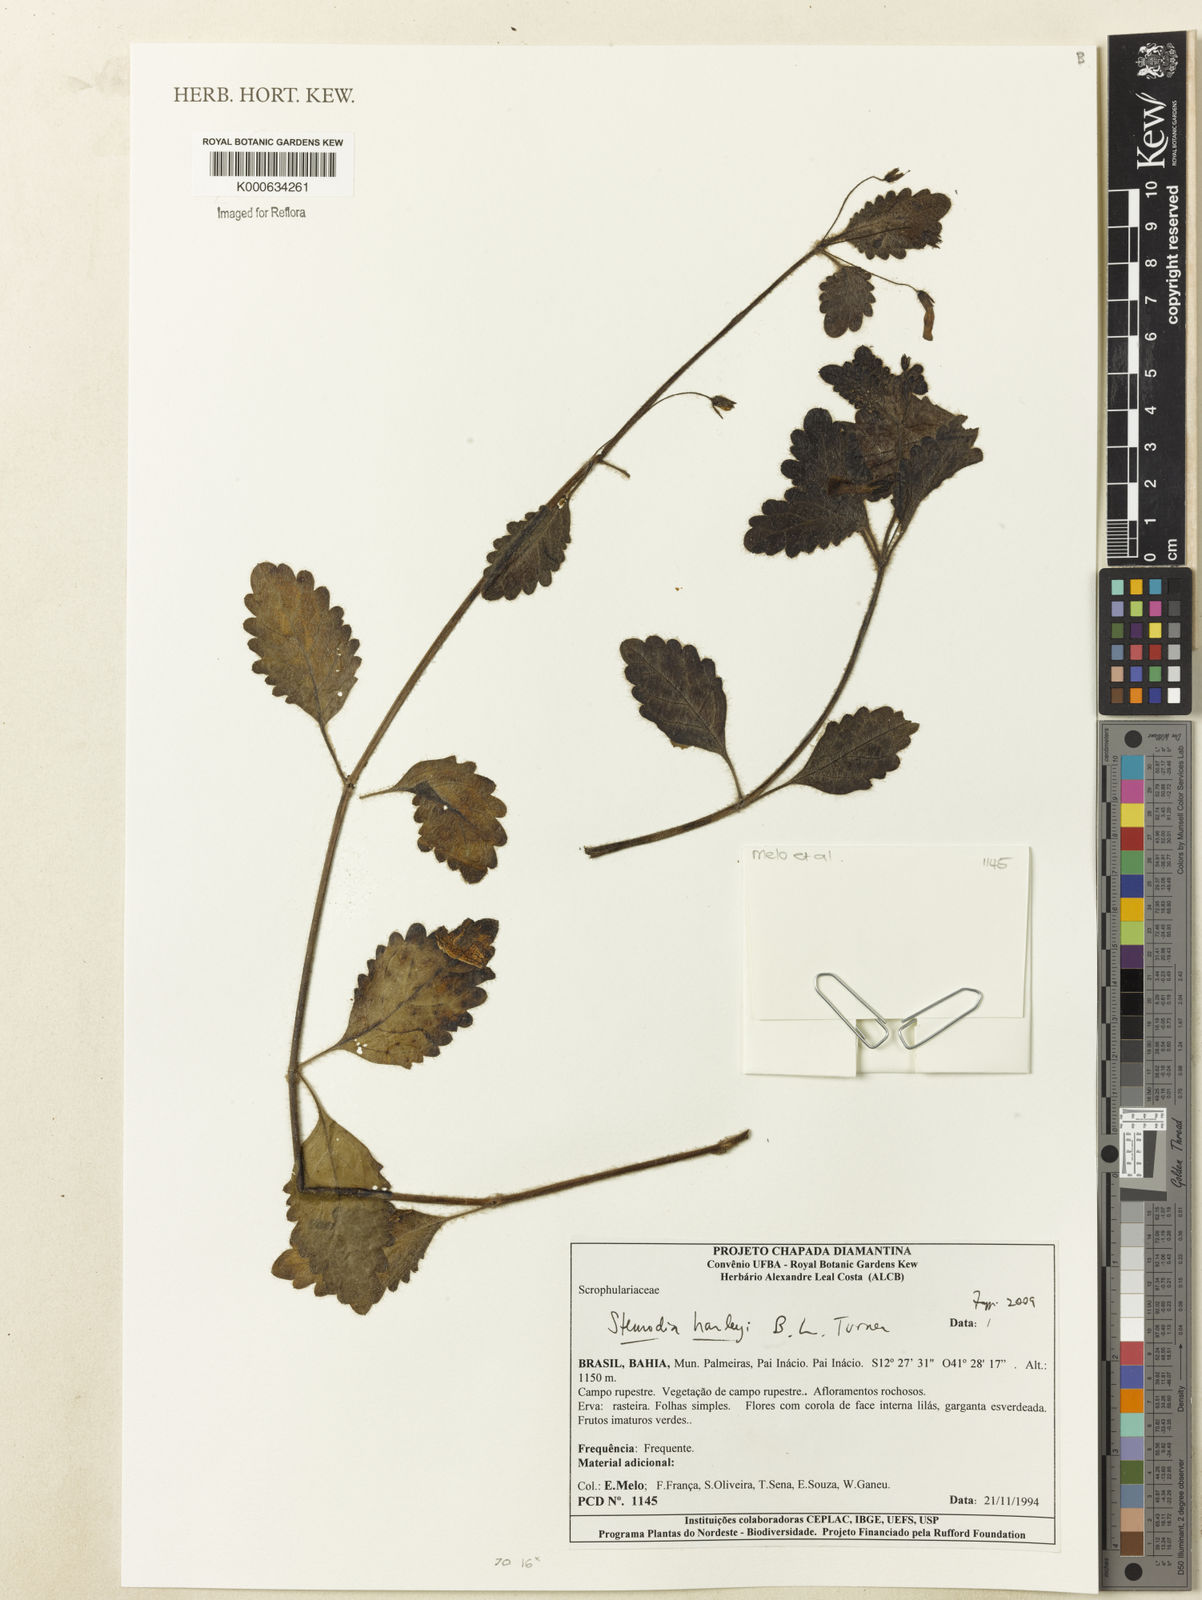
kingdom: Plantae
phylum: Tracheophyta
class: Magnoliopsida
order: Lamiales
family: Plantaginaceae
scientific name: Plantaginaceae
